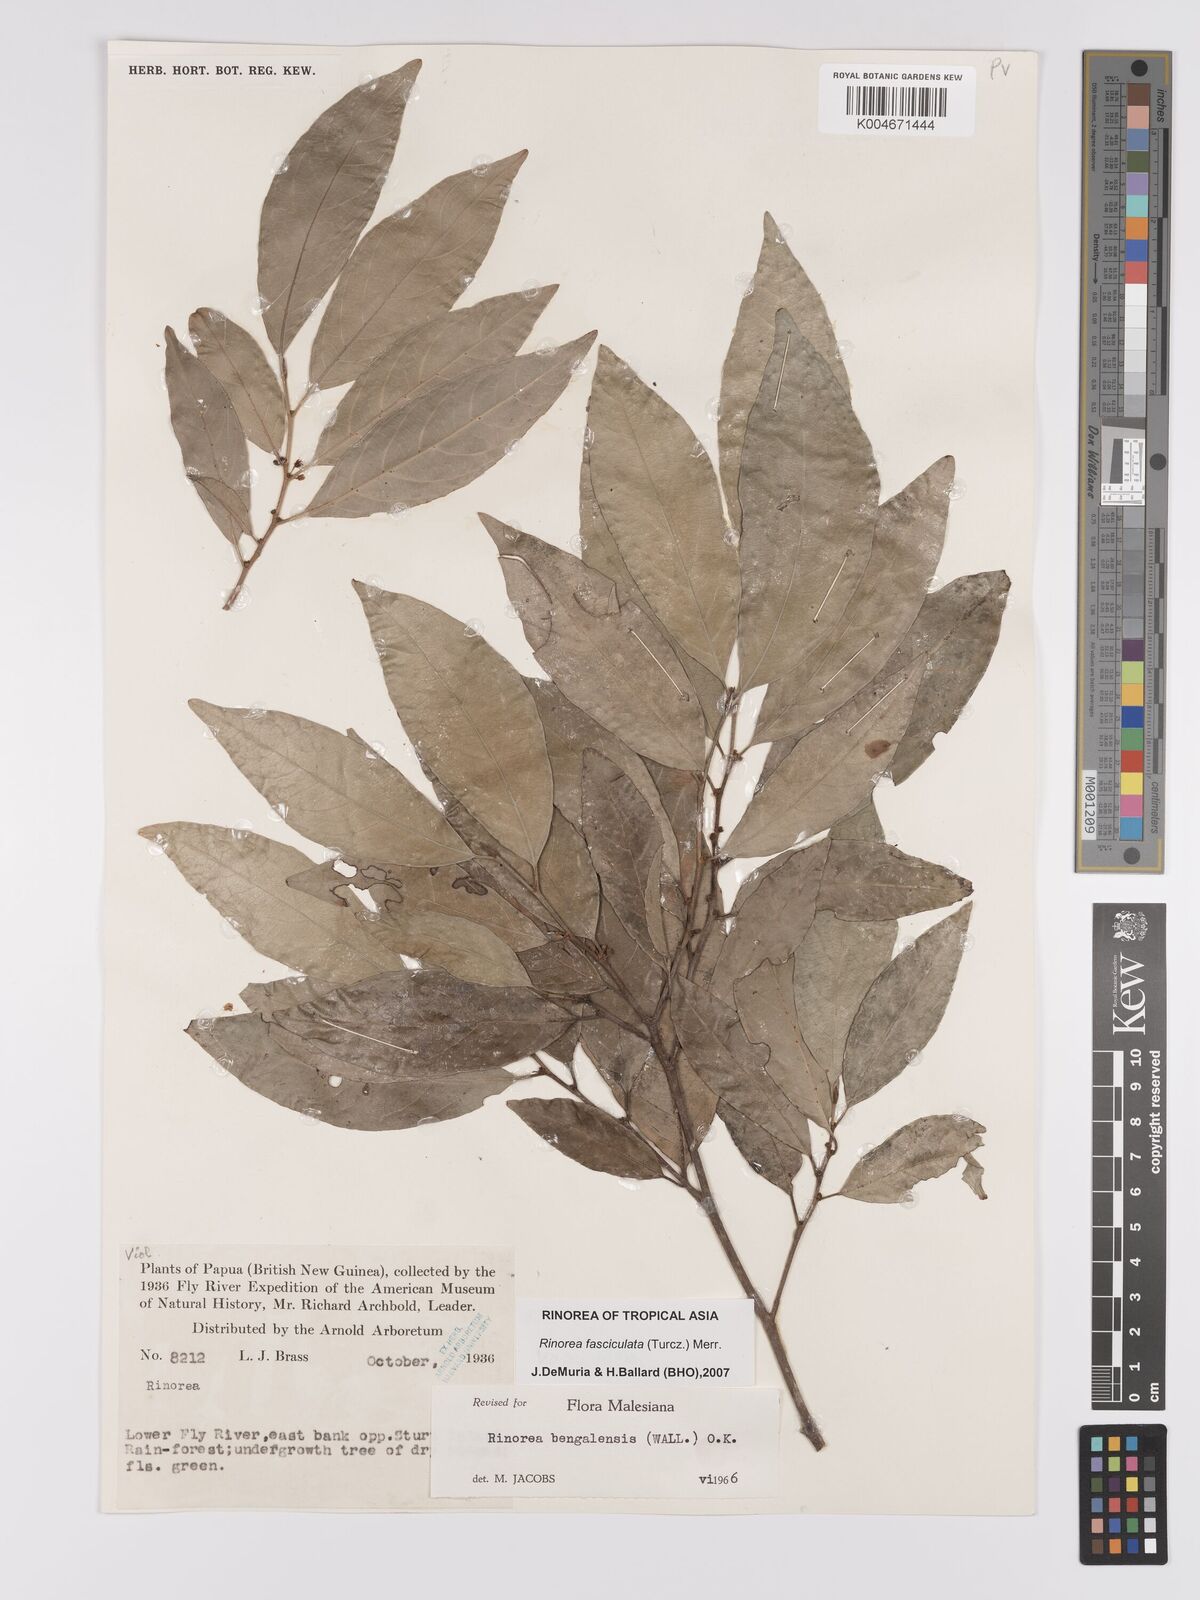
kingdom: Plantae
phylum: Tracheophyta
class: Magnoliopsida
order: Malpighiales
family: Violaceae
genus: Rinorea
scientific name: Rinorea bengalensis
